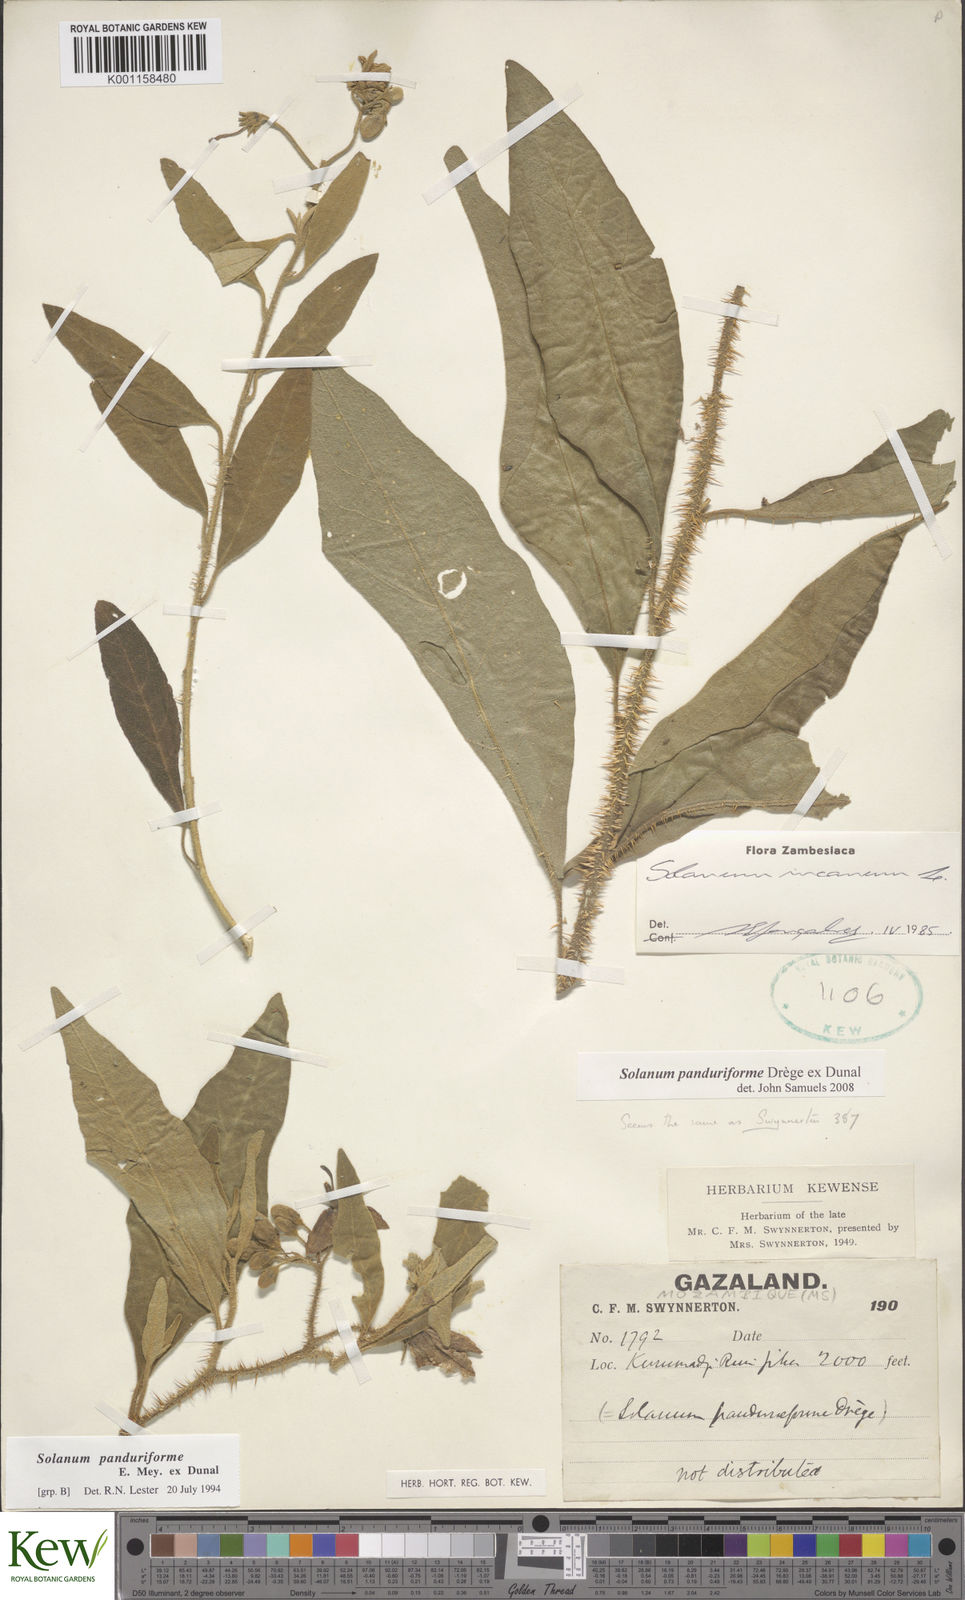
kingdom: Plantae
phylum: Tracheophyta
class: Magnoliopsida
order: Solanales
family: Solanaceae
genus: Solanum
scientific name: Solanum campylacanthum
